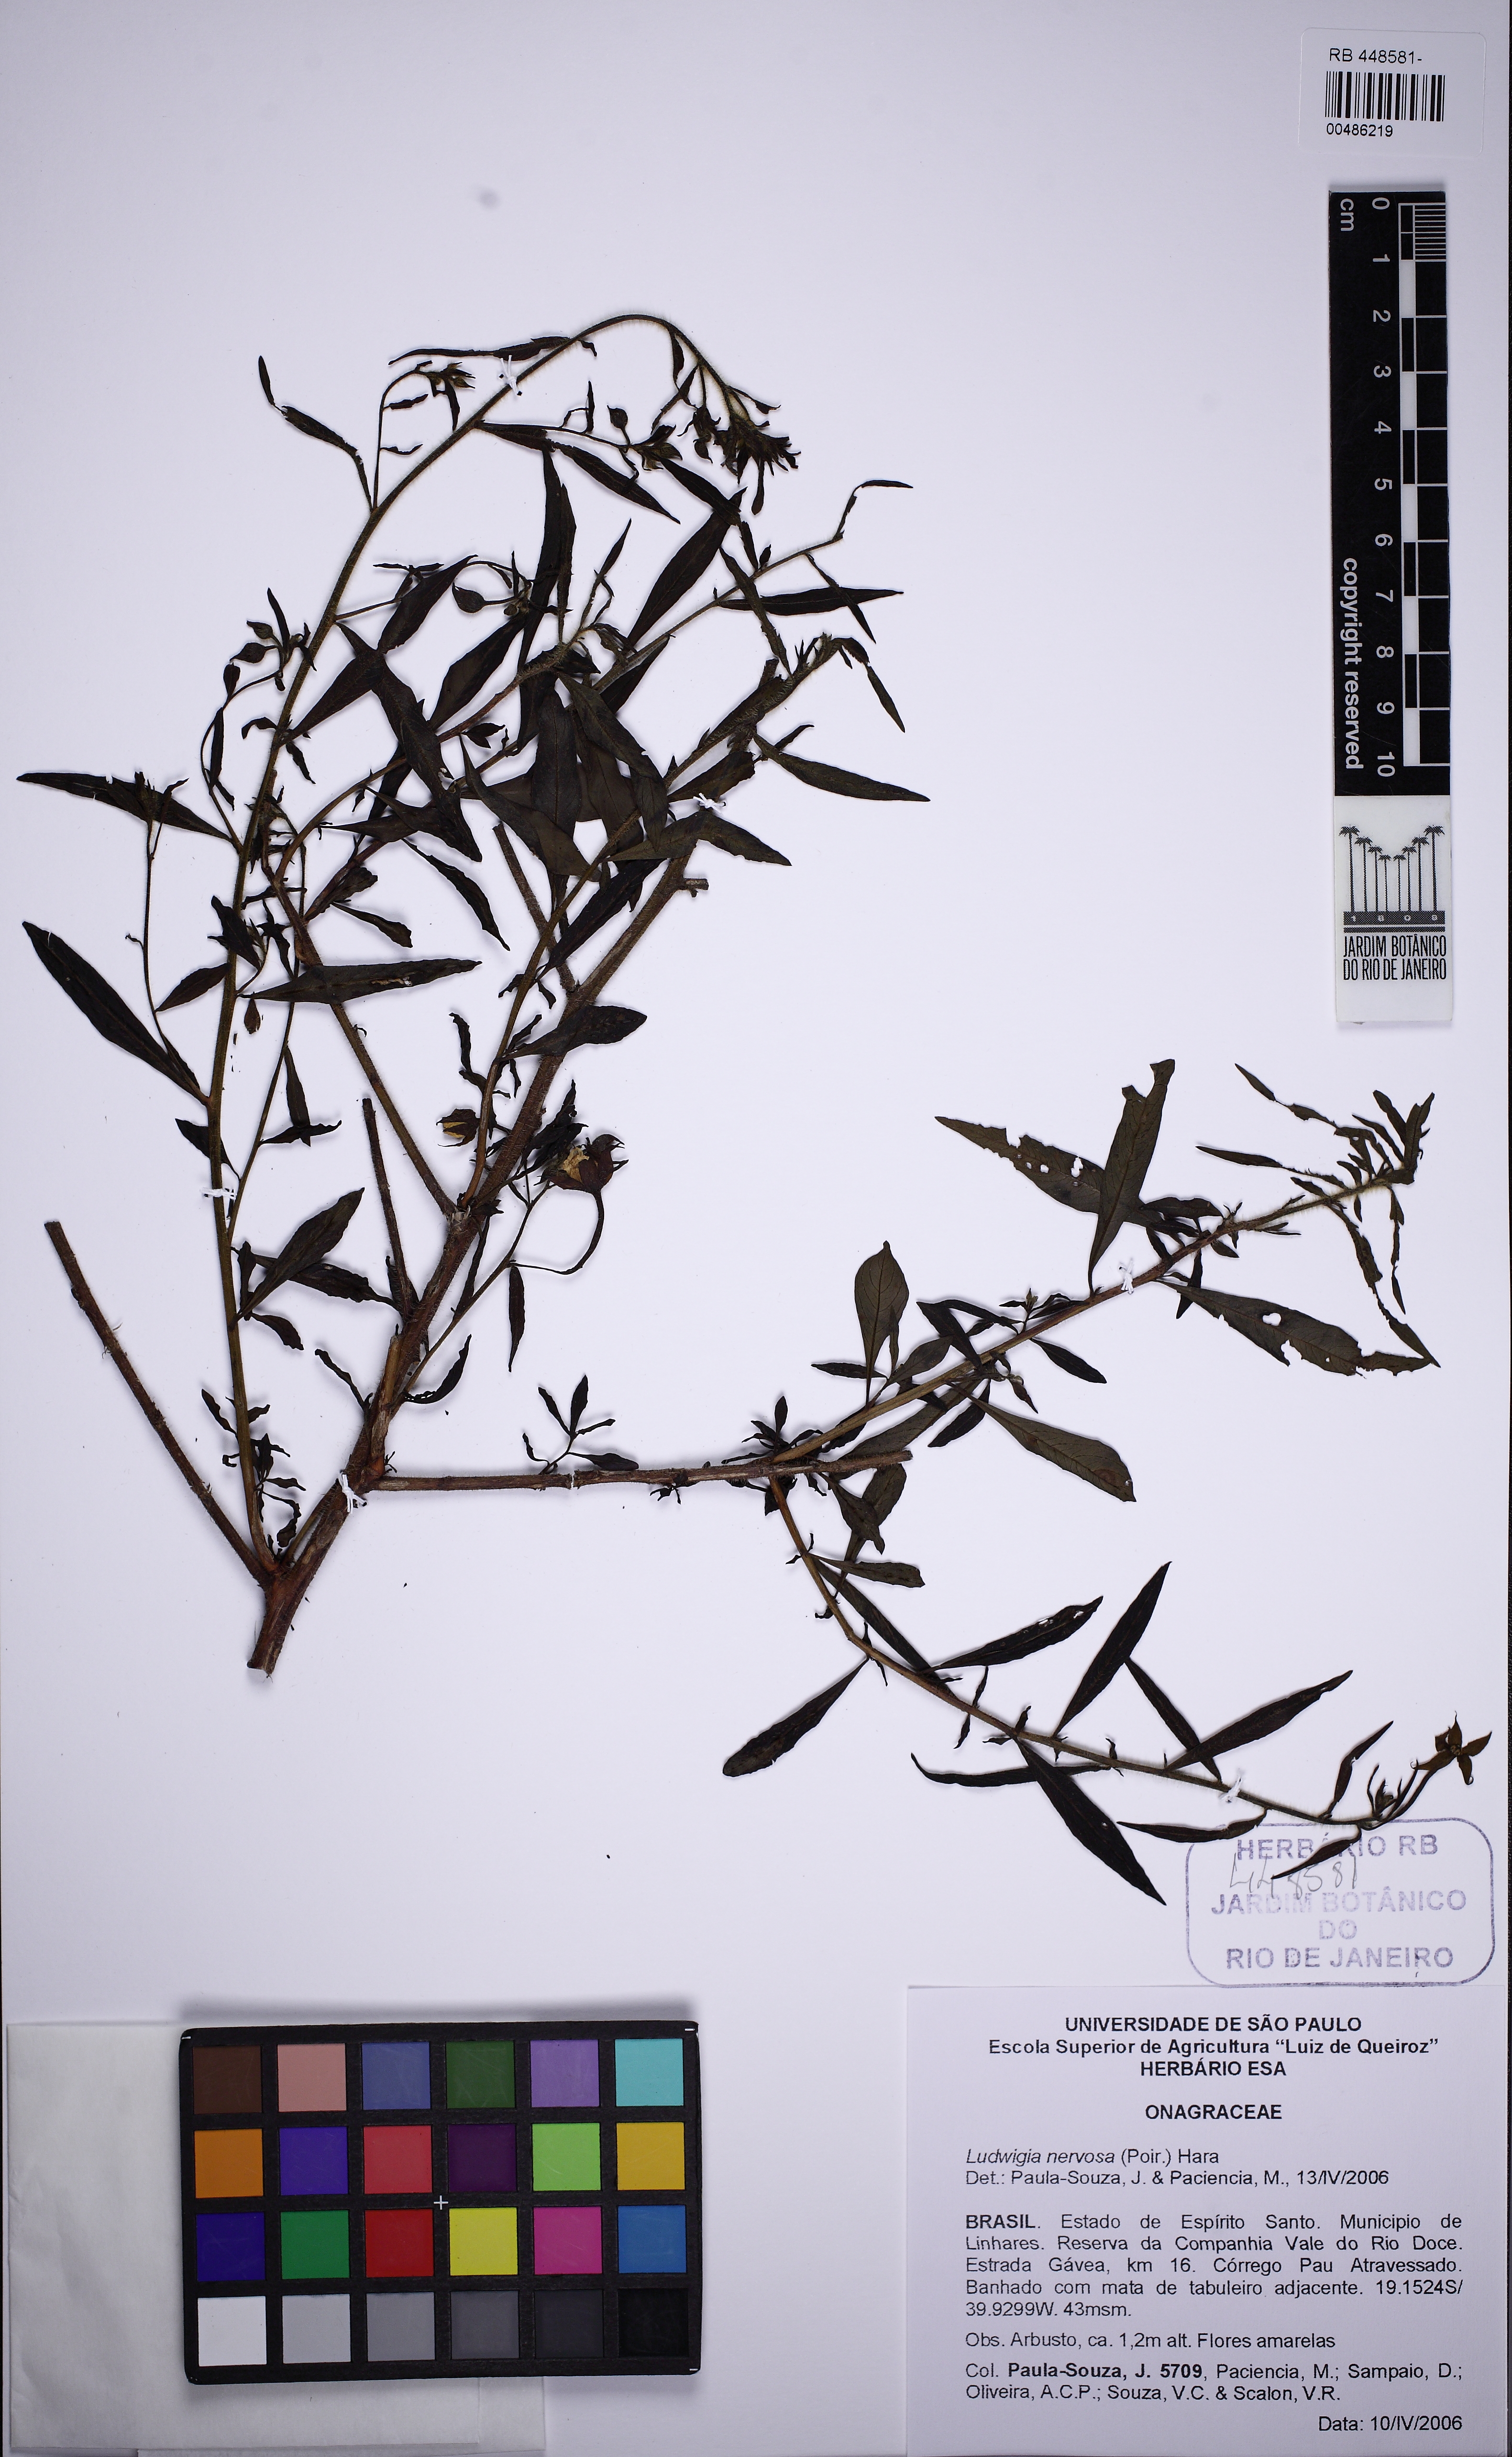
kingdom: Plantae
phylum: Tracheophyta
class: Magnoliopsida
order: Myrtales
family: Onagraceae
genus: Ludwigia
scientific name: Ludwigia nervosa
